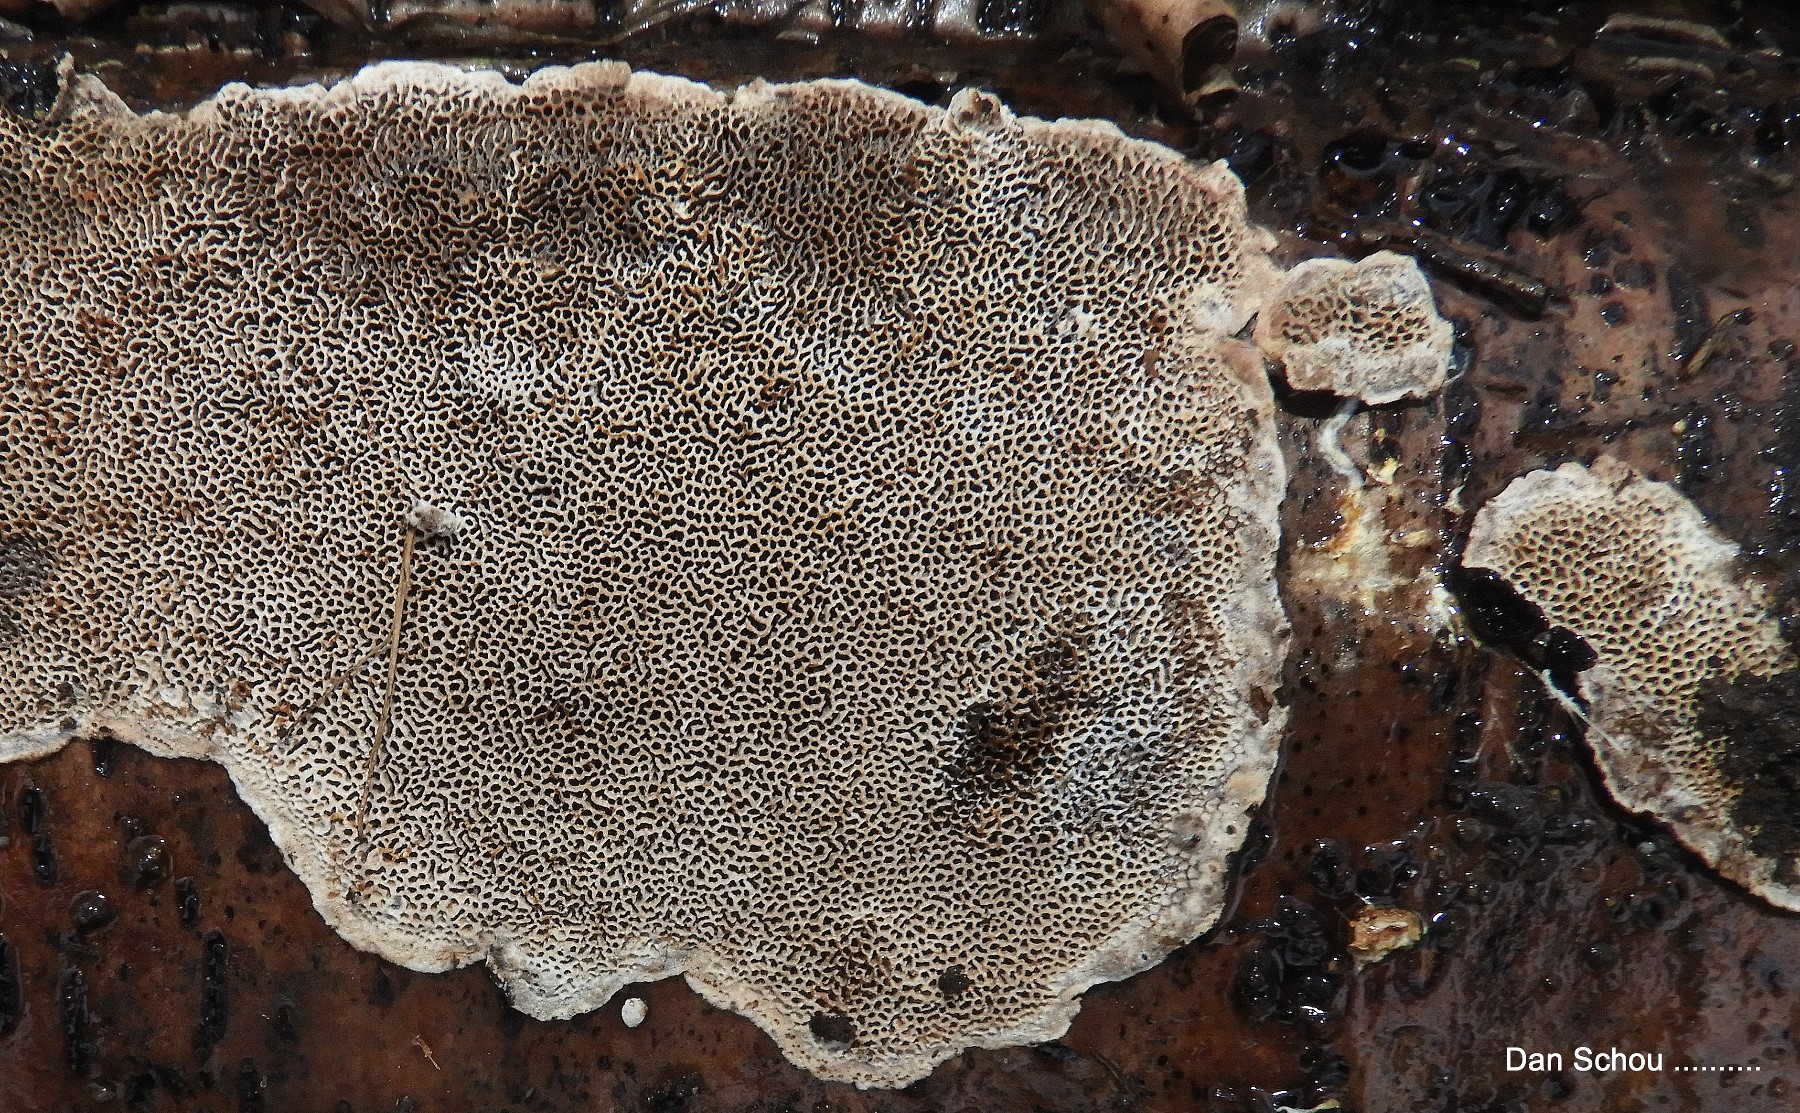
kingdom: Fungi
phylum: Basidiomycota
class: Agaricomycetes
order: Polyporales
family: Polyporaceae
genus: Podofomes
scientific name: Podofomes mollis
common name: blød begporesvamp
